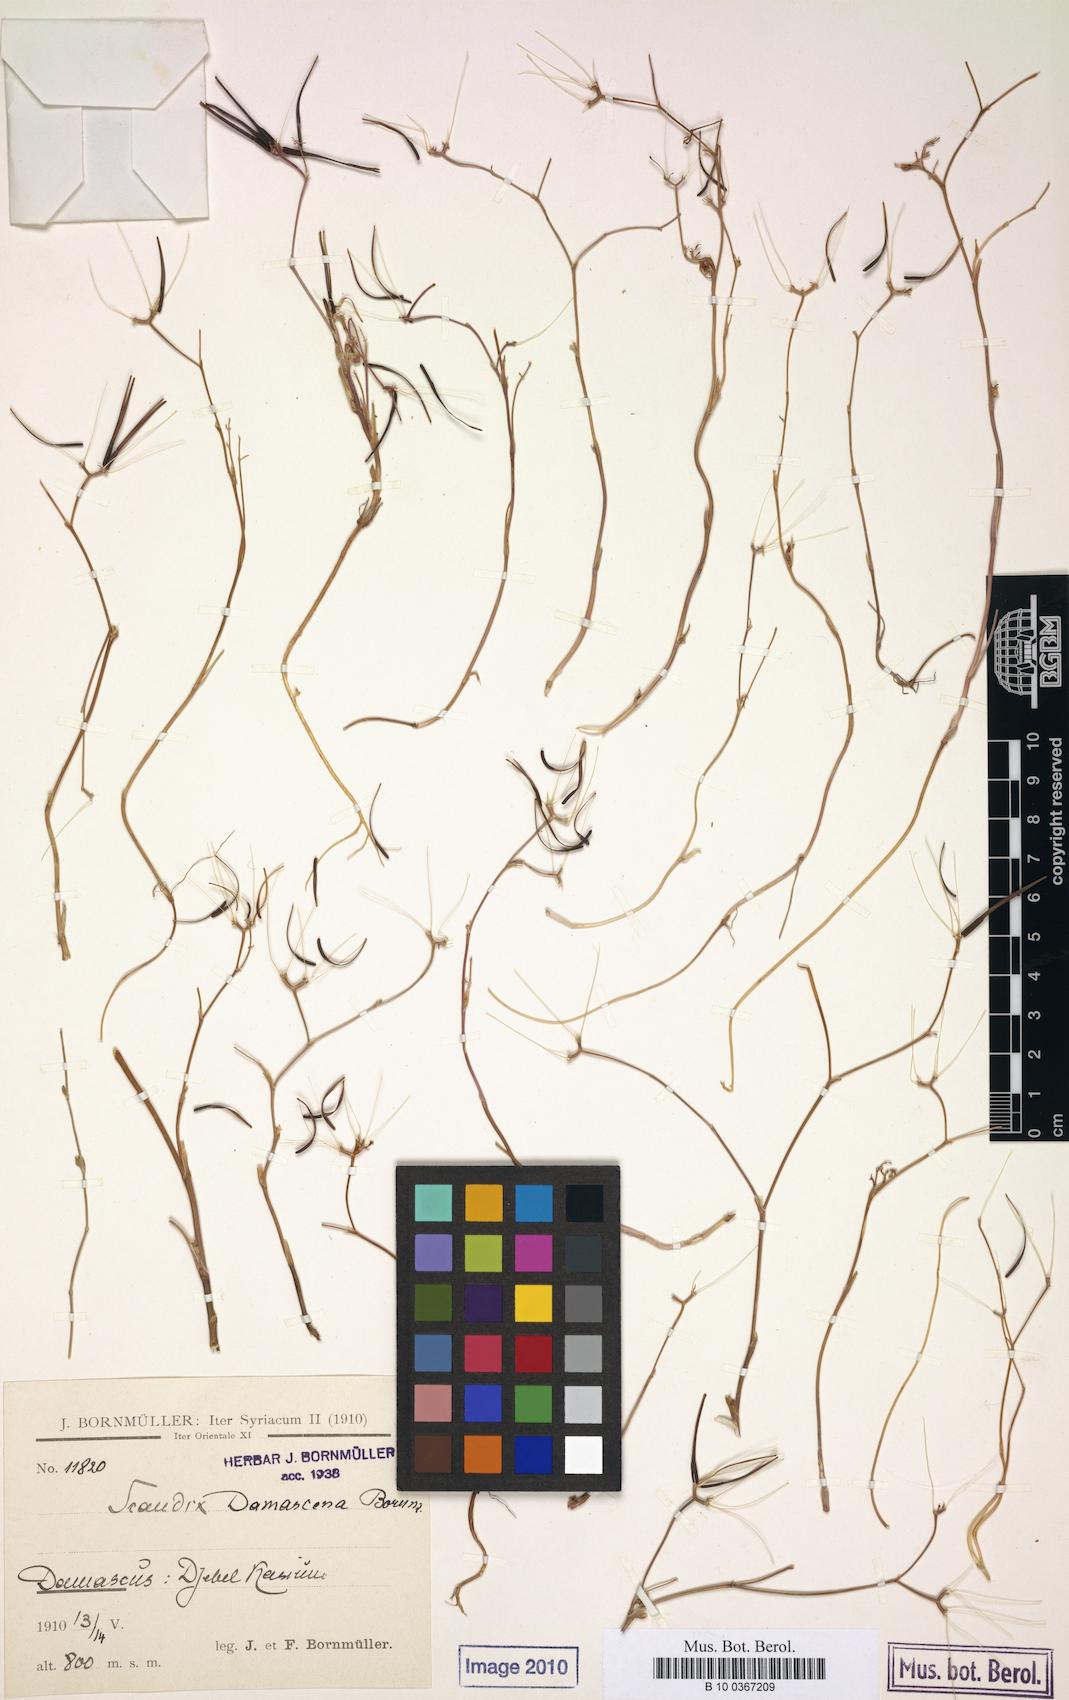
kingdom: Plantae
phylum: Tracheophyta
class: Magnoliopsida
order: Apiales
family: Apiaceae
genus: Scandix
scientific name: Scandix damascena
